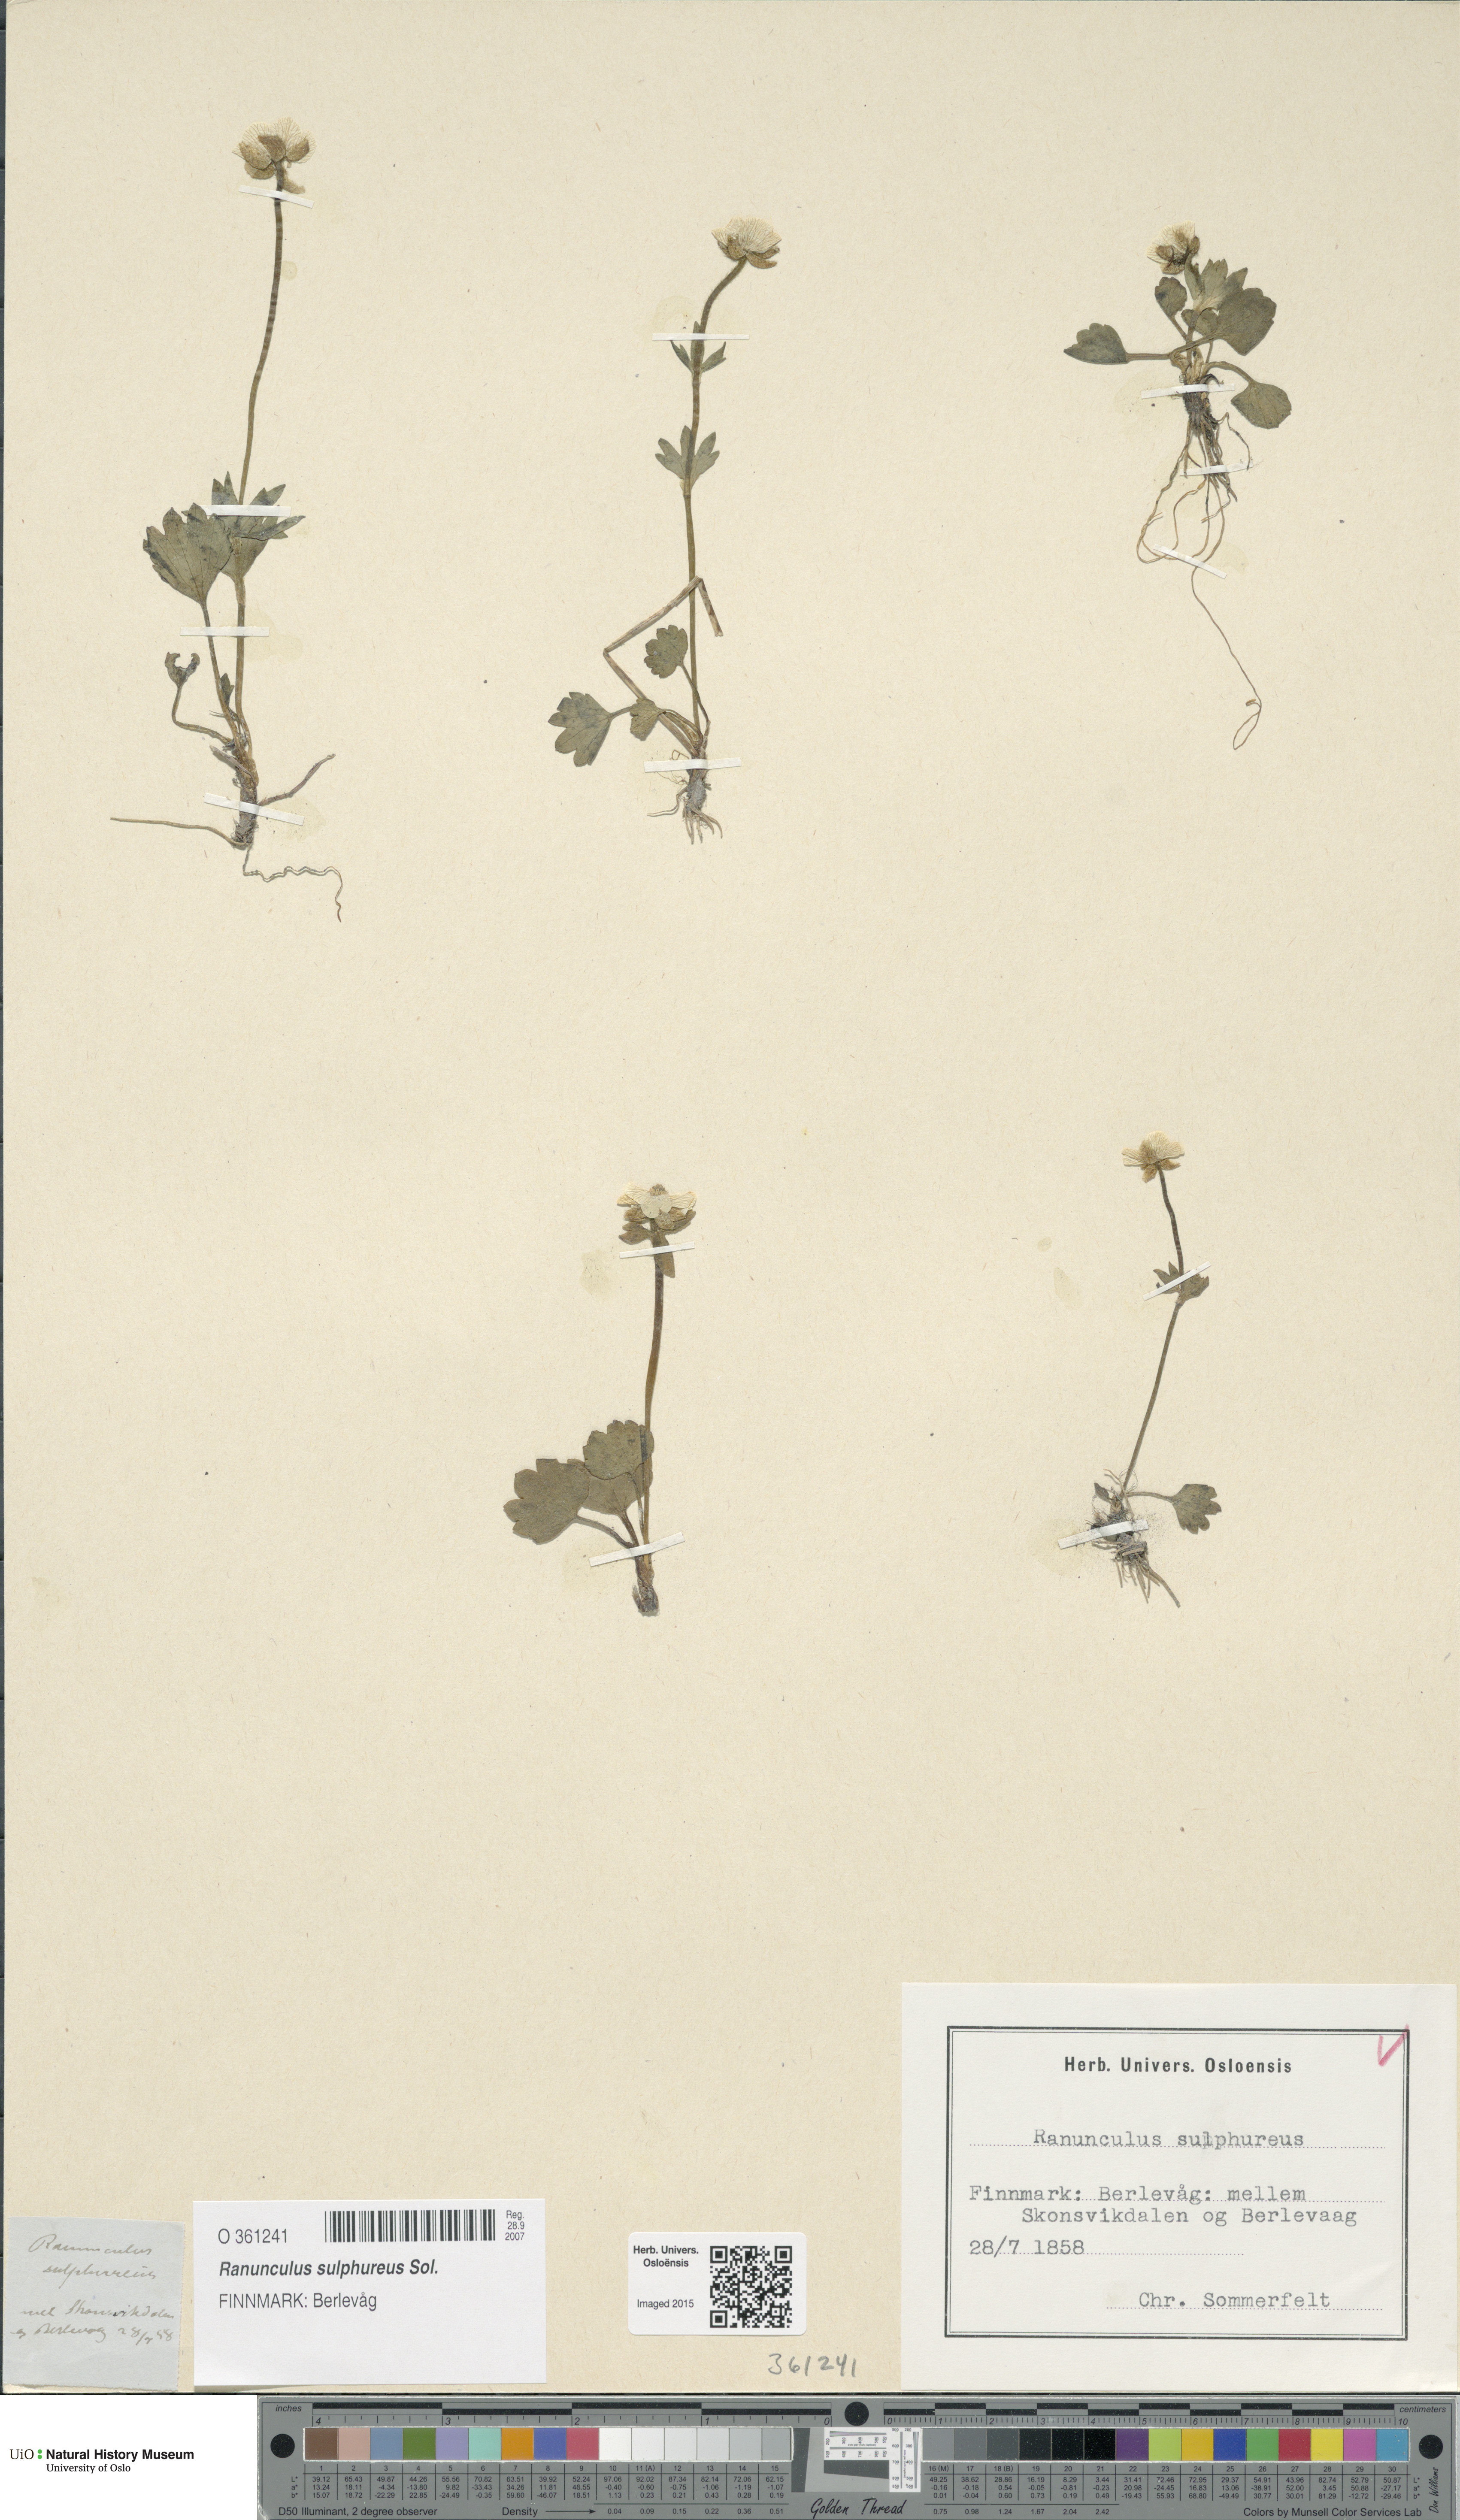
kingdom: Plantae
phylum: Tracheophyta
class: Magnoliopsida
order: Ranunculales
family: Ranunculaceae
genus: Ranunculus
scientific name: Ranunculus sulphureus
